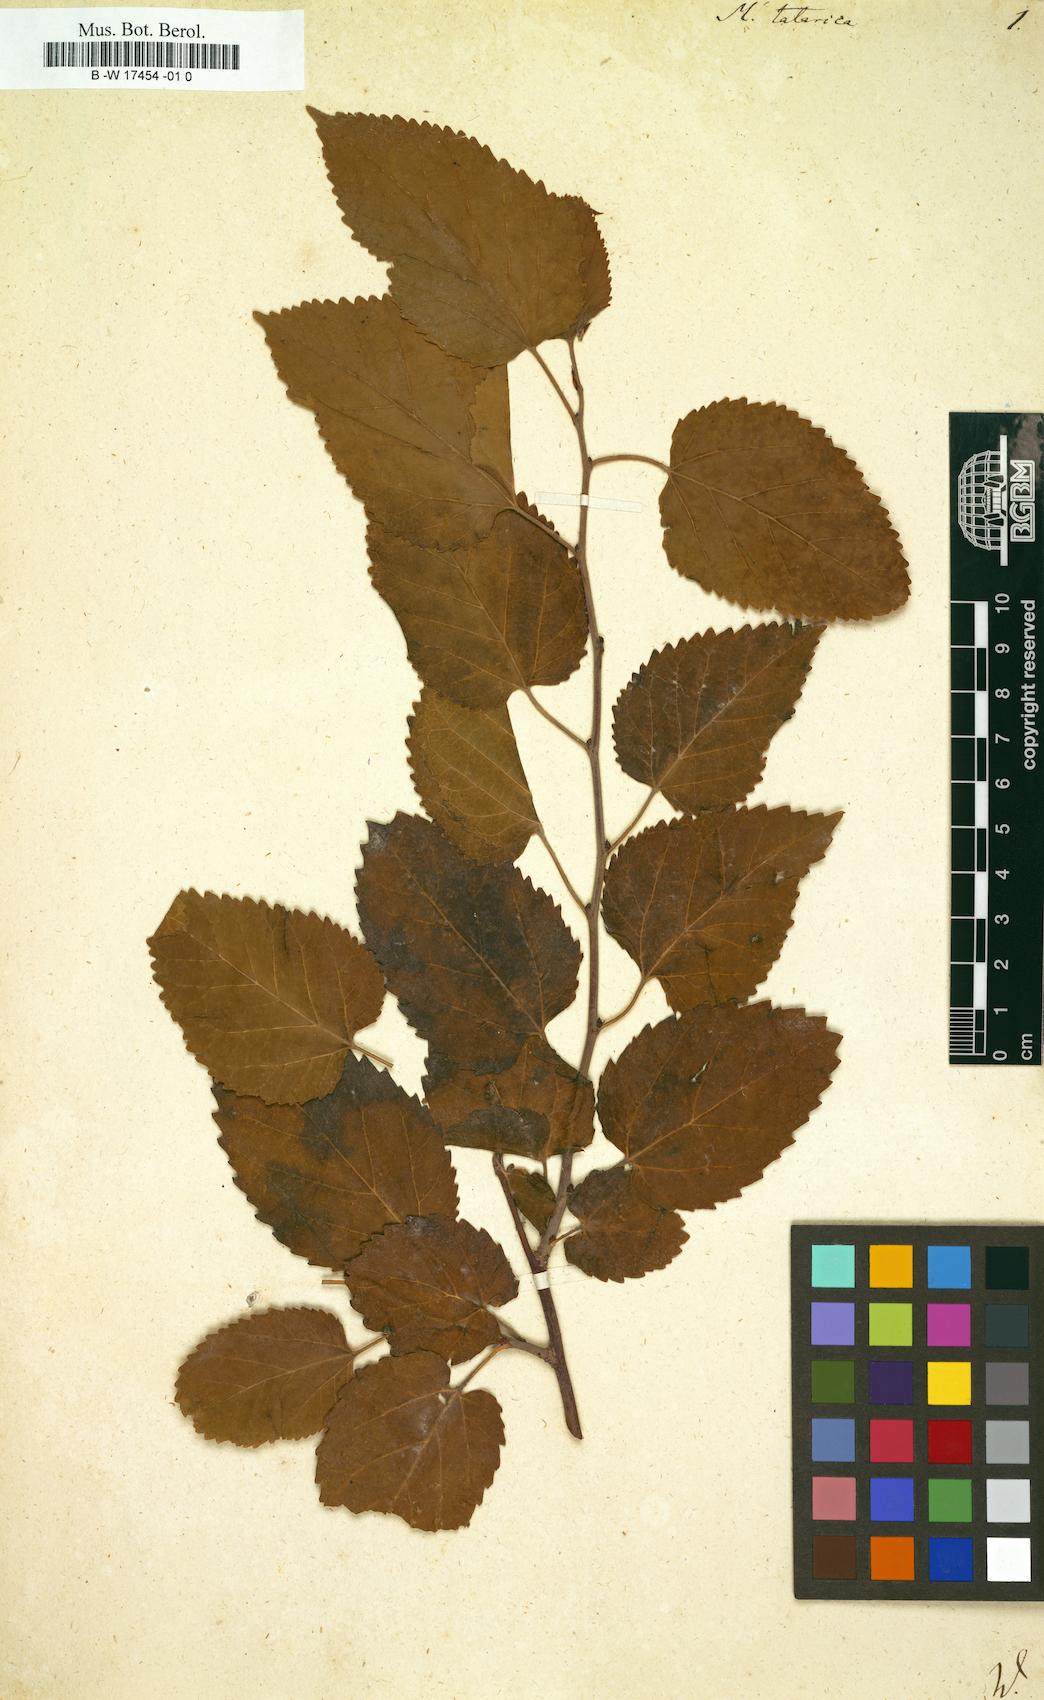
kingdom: Plantae
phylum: Tracheophyta
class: Magnoliopsida
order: Rosales
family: Moraceae
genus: Morus
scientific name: Morus alba
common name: White mulberry
